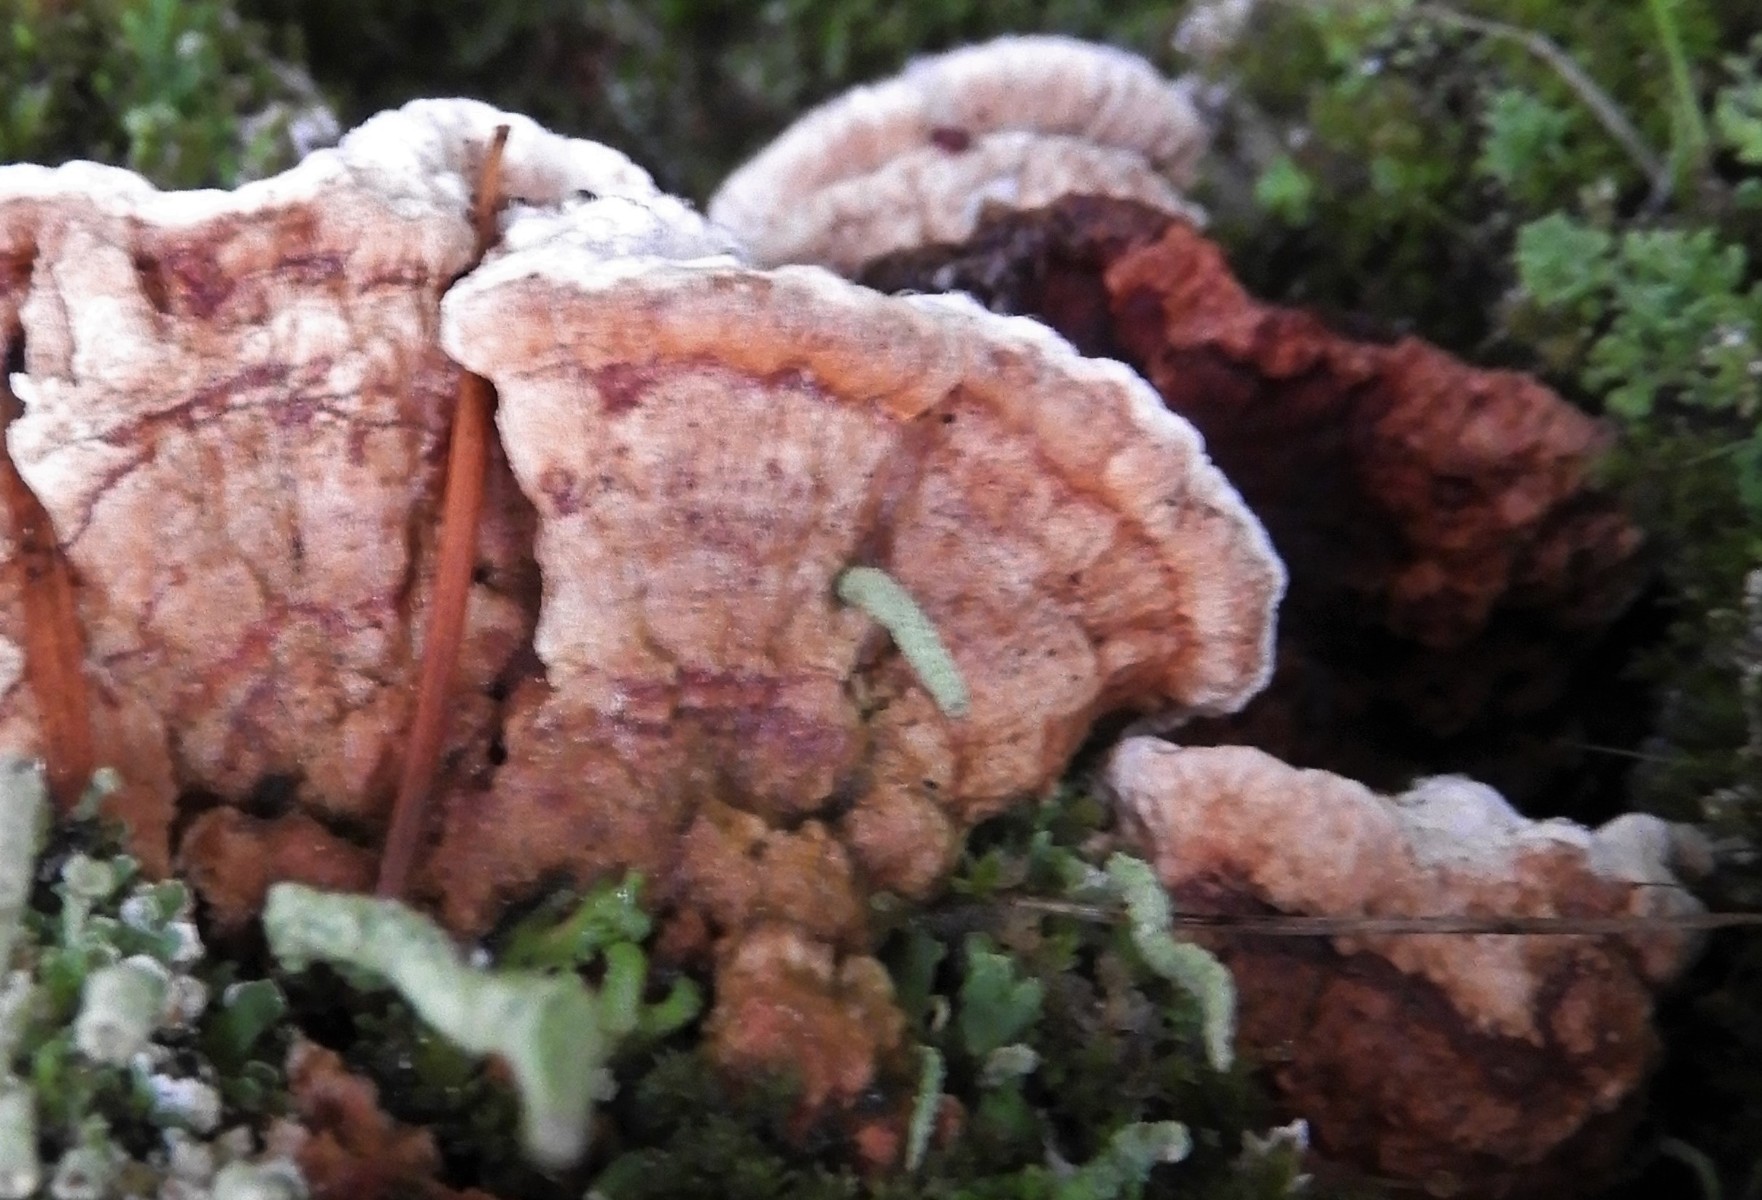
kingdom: Fungi
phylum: Basidiomycota
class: Agaricomycetes
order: Russulales
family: Bondarzewiaceae
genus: Heterobasidion
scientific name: Heterobasidion annosum
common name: almindelig rodfordærver
